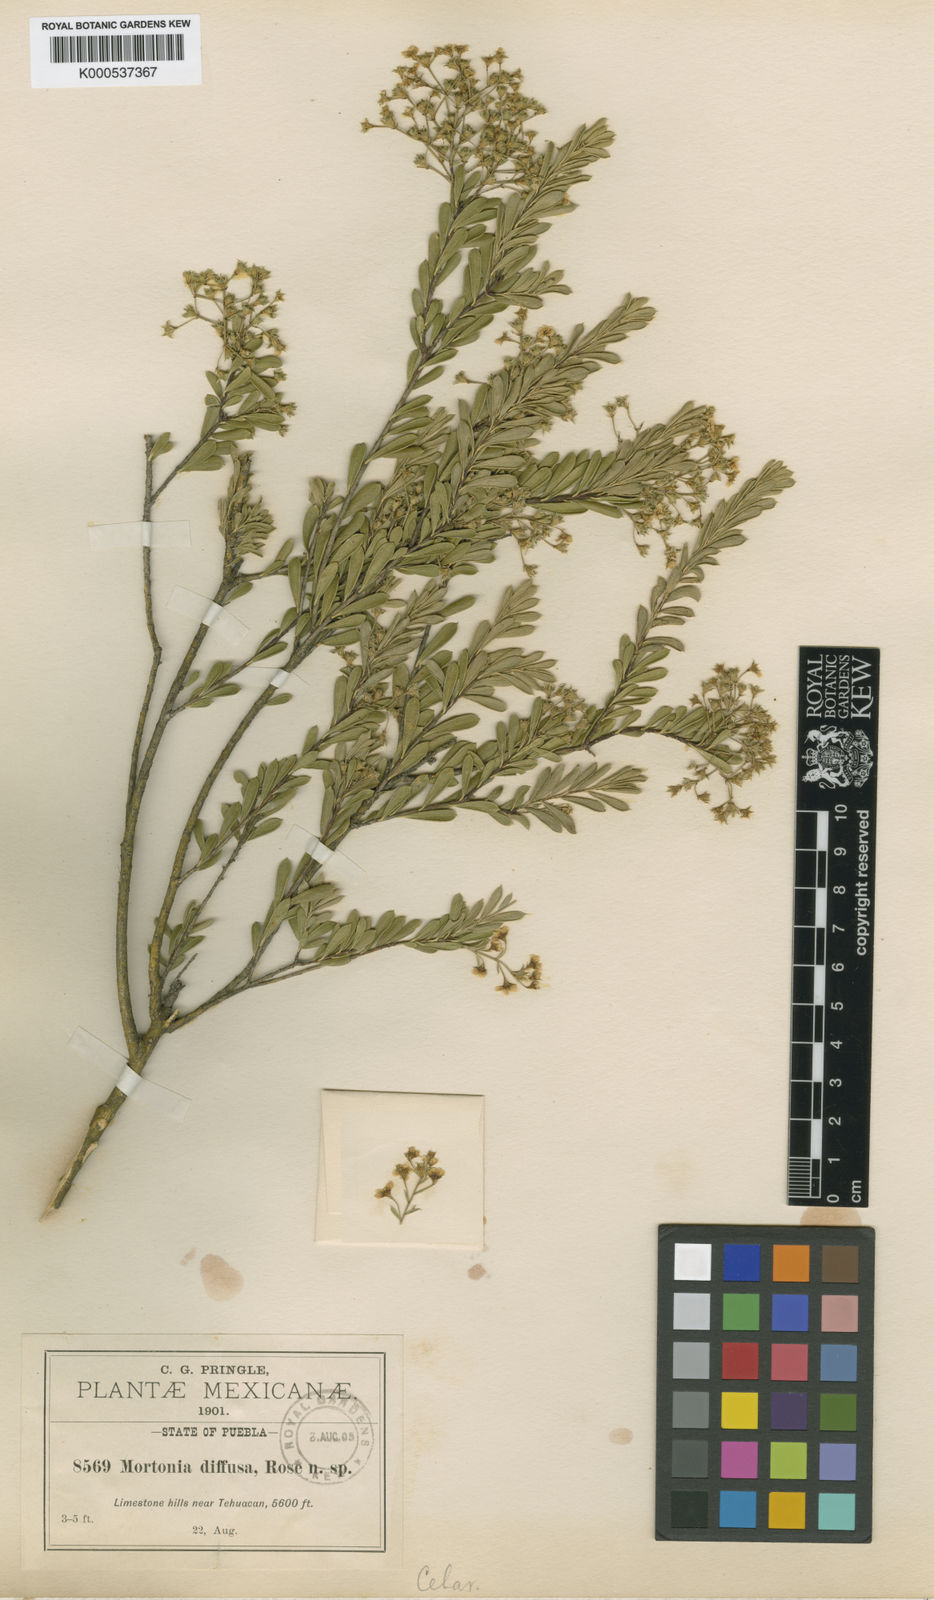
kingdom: Plantae
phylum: Tracheophyta
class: Magnoliopsida
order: Celastrales
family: Celastraceae
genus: Mortonia
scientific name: Mortonia diffusa
